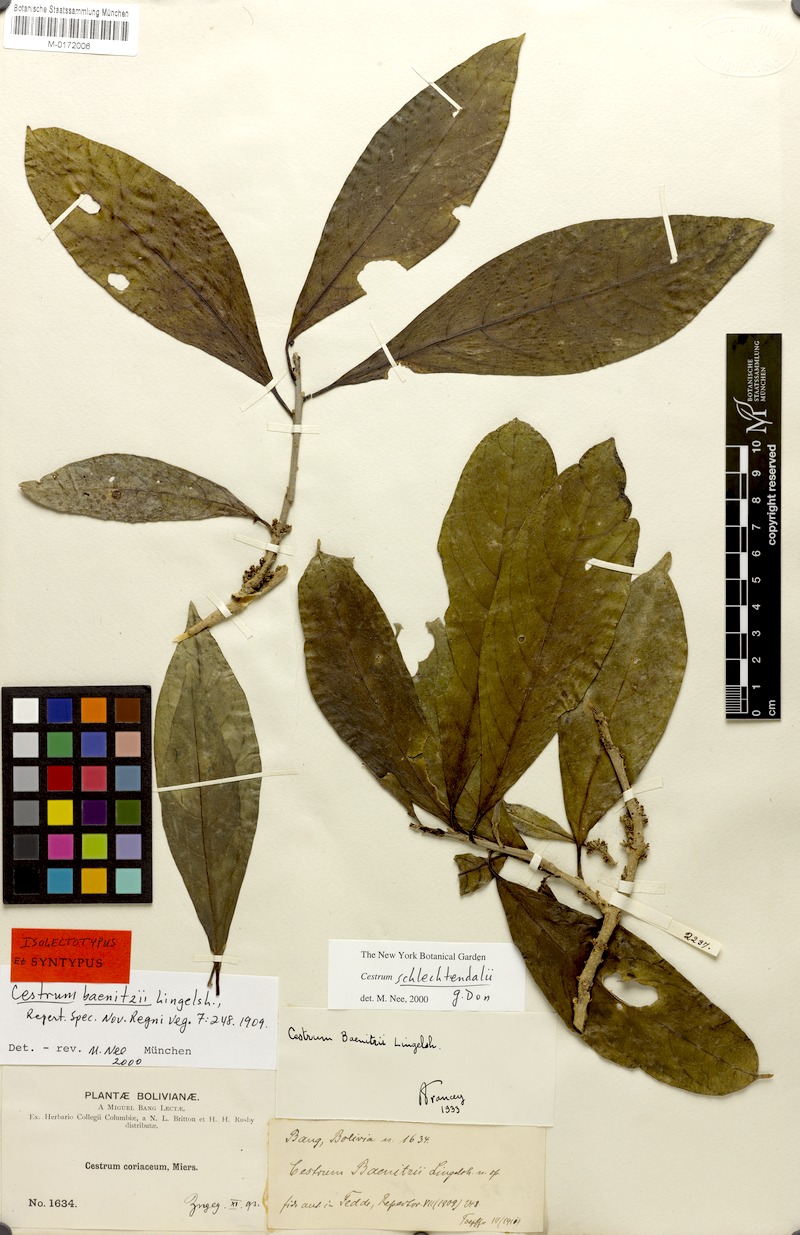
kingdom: Plantae
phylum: Tracheophyta
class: Magnoliopsida
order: Solanales
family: Solanaceae
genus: Cestrum
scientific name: Cestrum schlechtendalii
